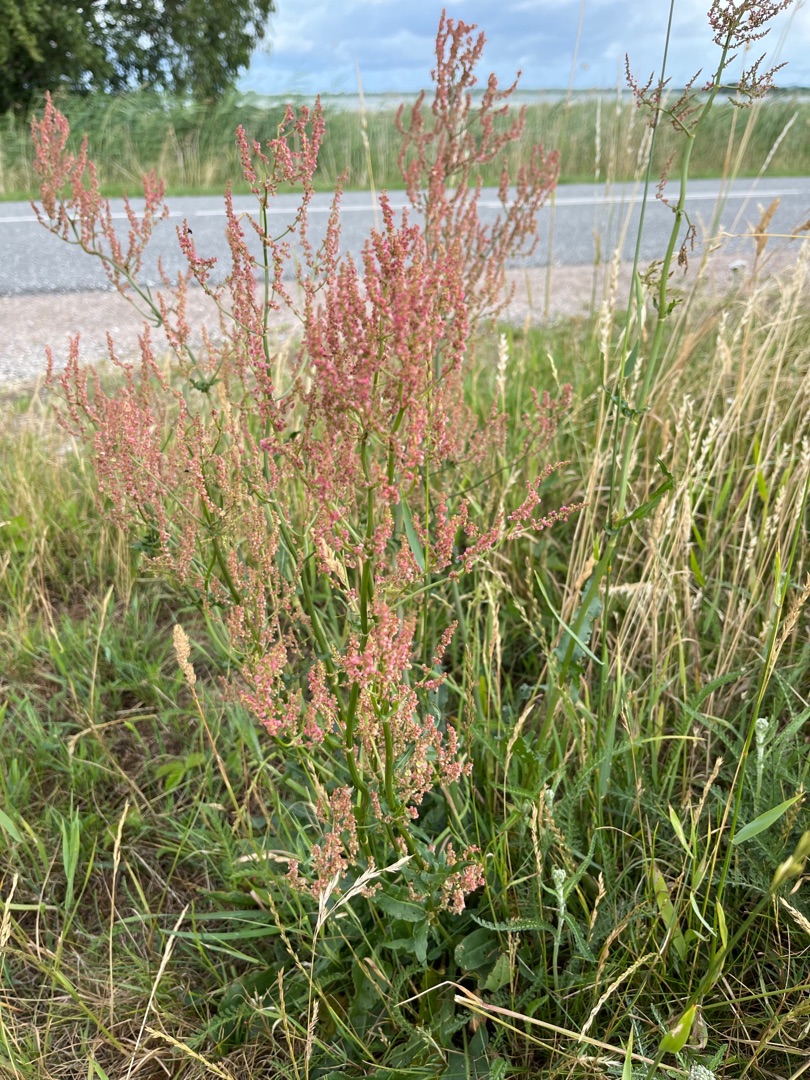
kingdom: Plantae
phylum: Tracheophyta
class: Magnoliopsida
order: Caryophyllales
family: Polygonaceae
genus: Rumex
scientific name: Rumex thyrsiflorus
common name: Dusk-syre
